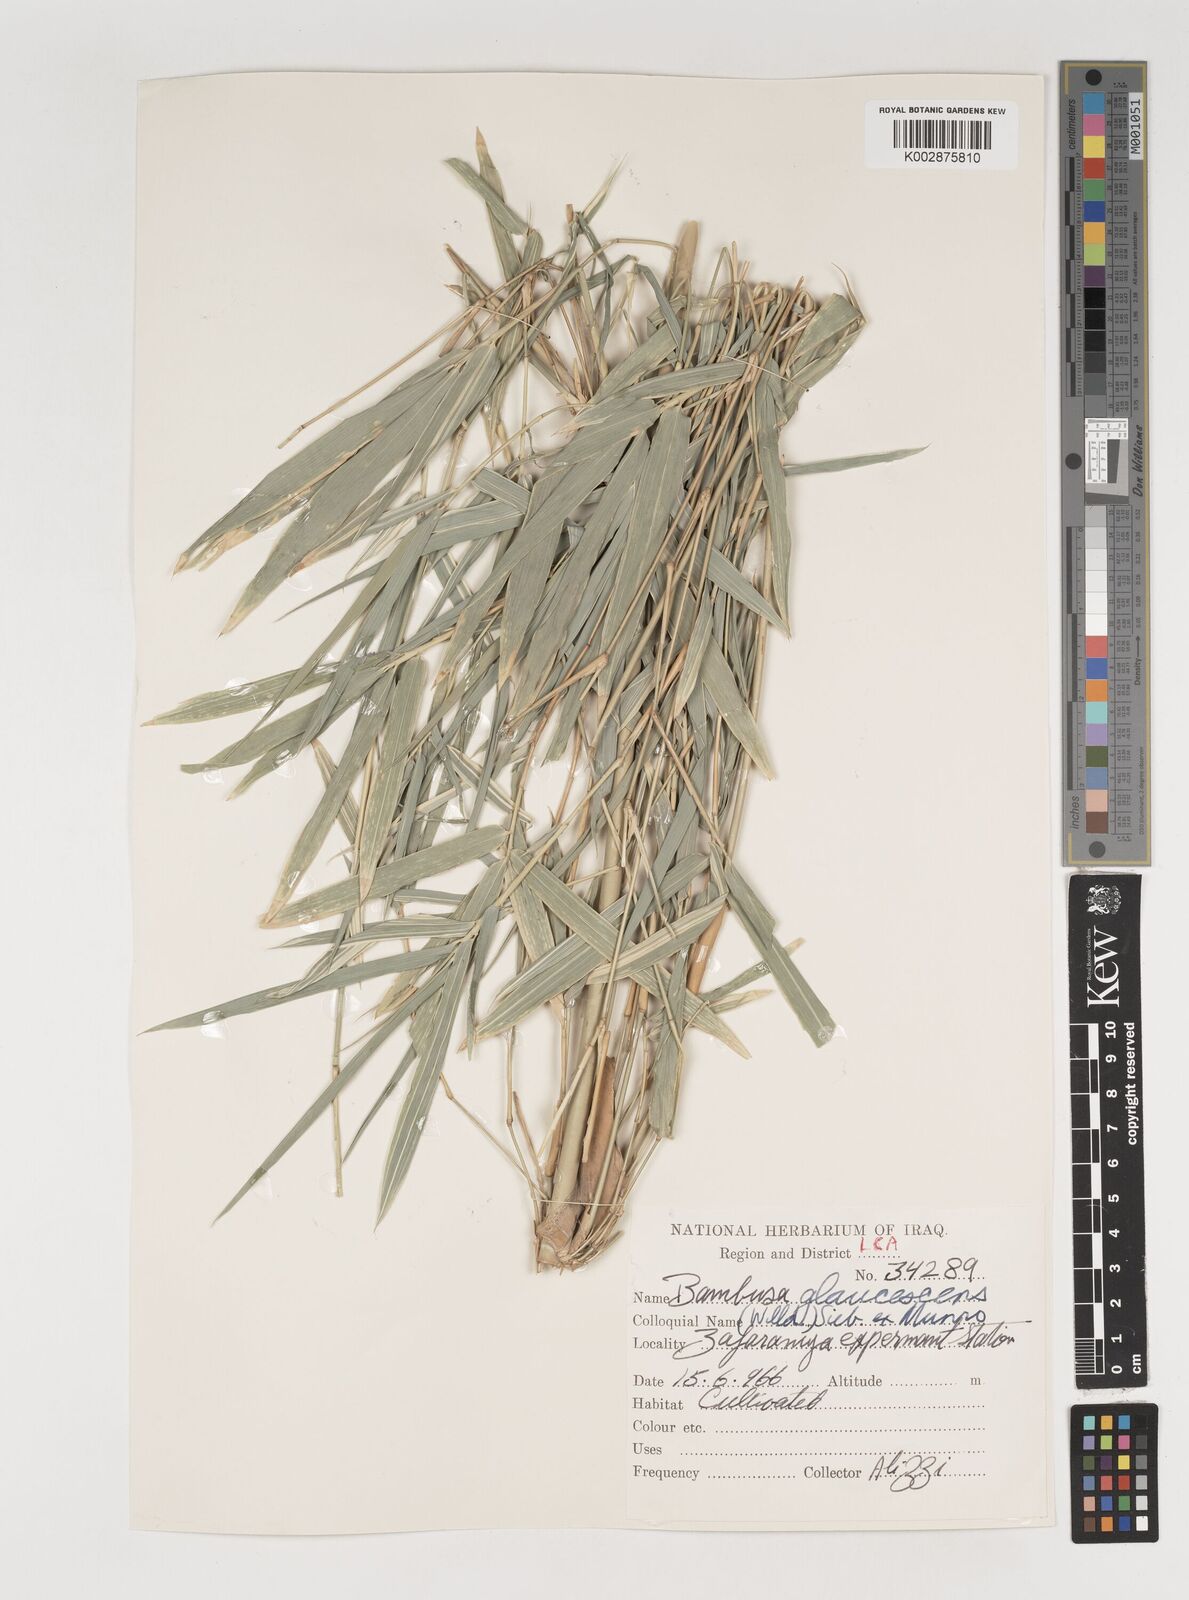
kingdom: Plantae
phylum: Tracheophyta
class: Liliopsida
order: Poales
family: Poaceae
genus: Bambusa
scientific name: Bambusa multiplex
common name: Hedge bamboo
